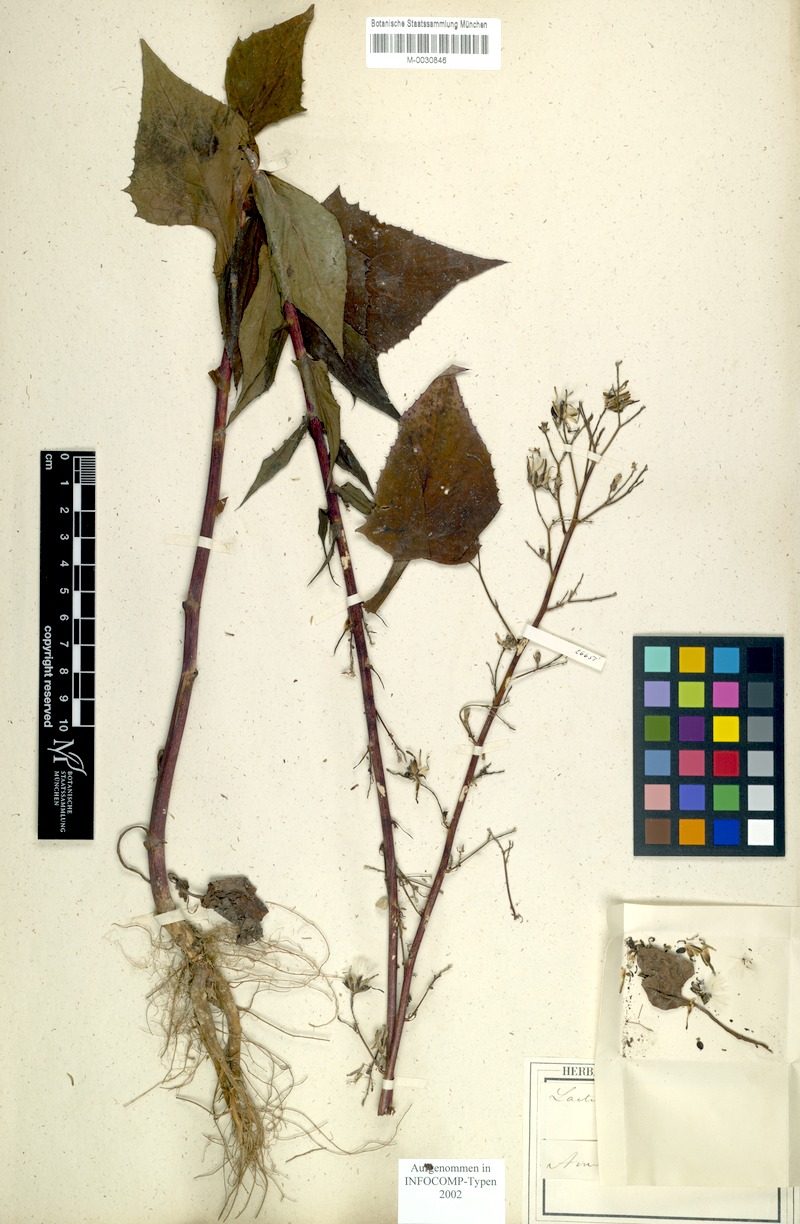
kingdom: Plantae
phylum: Tracheophyta
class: Magnoliopsida
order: Asterales
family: Asteraceae
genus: Lactuca
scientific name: Lactuca triangulata
